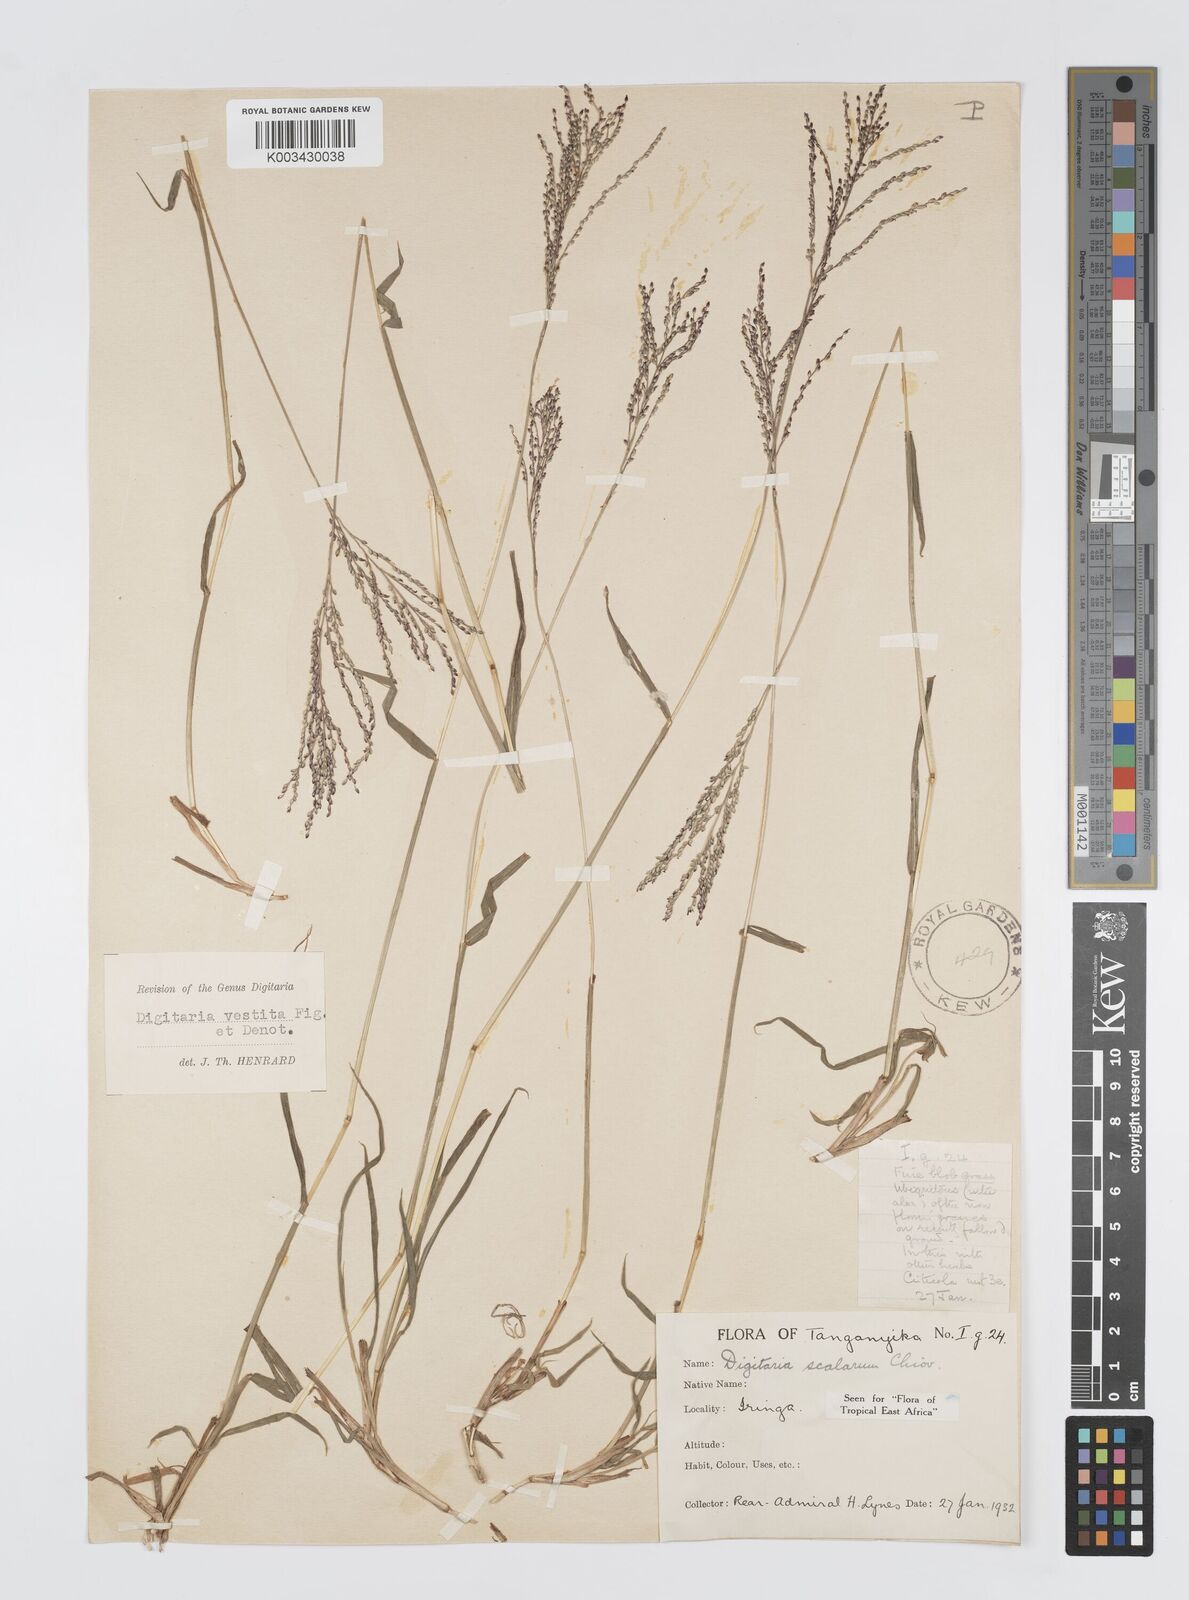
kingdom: Plantae
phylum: Tracheophyta
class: Liliopsida
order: Poales
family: Poaceae
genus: Digitaria
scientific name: Digitaria abyssinica
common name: African couchgrass
